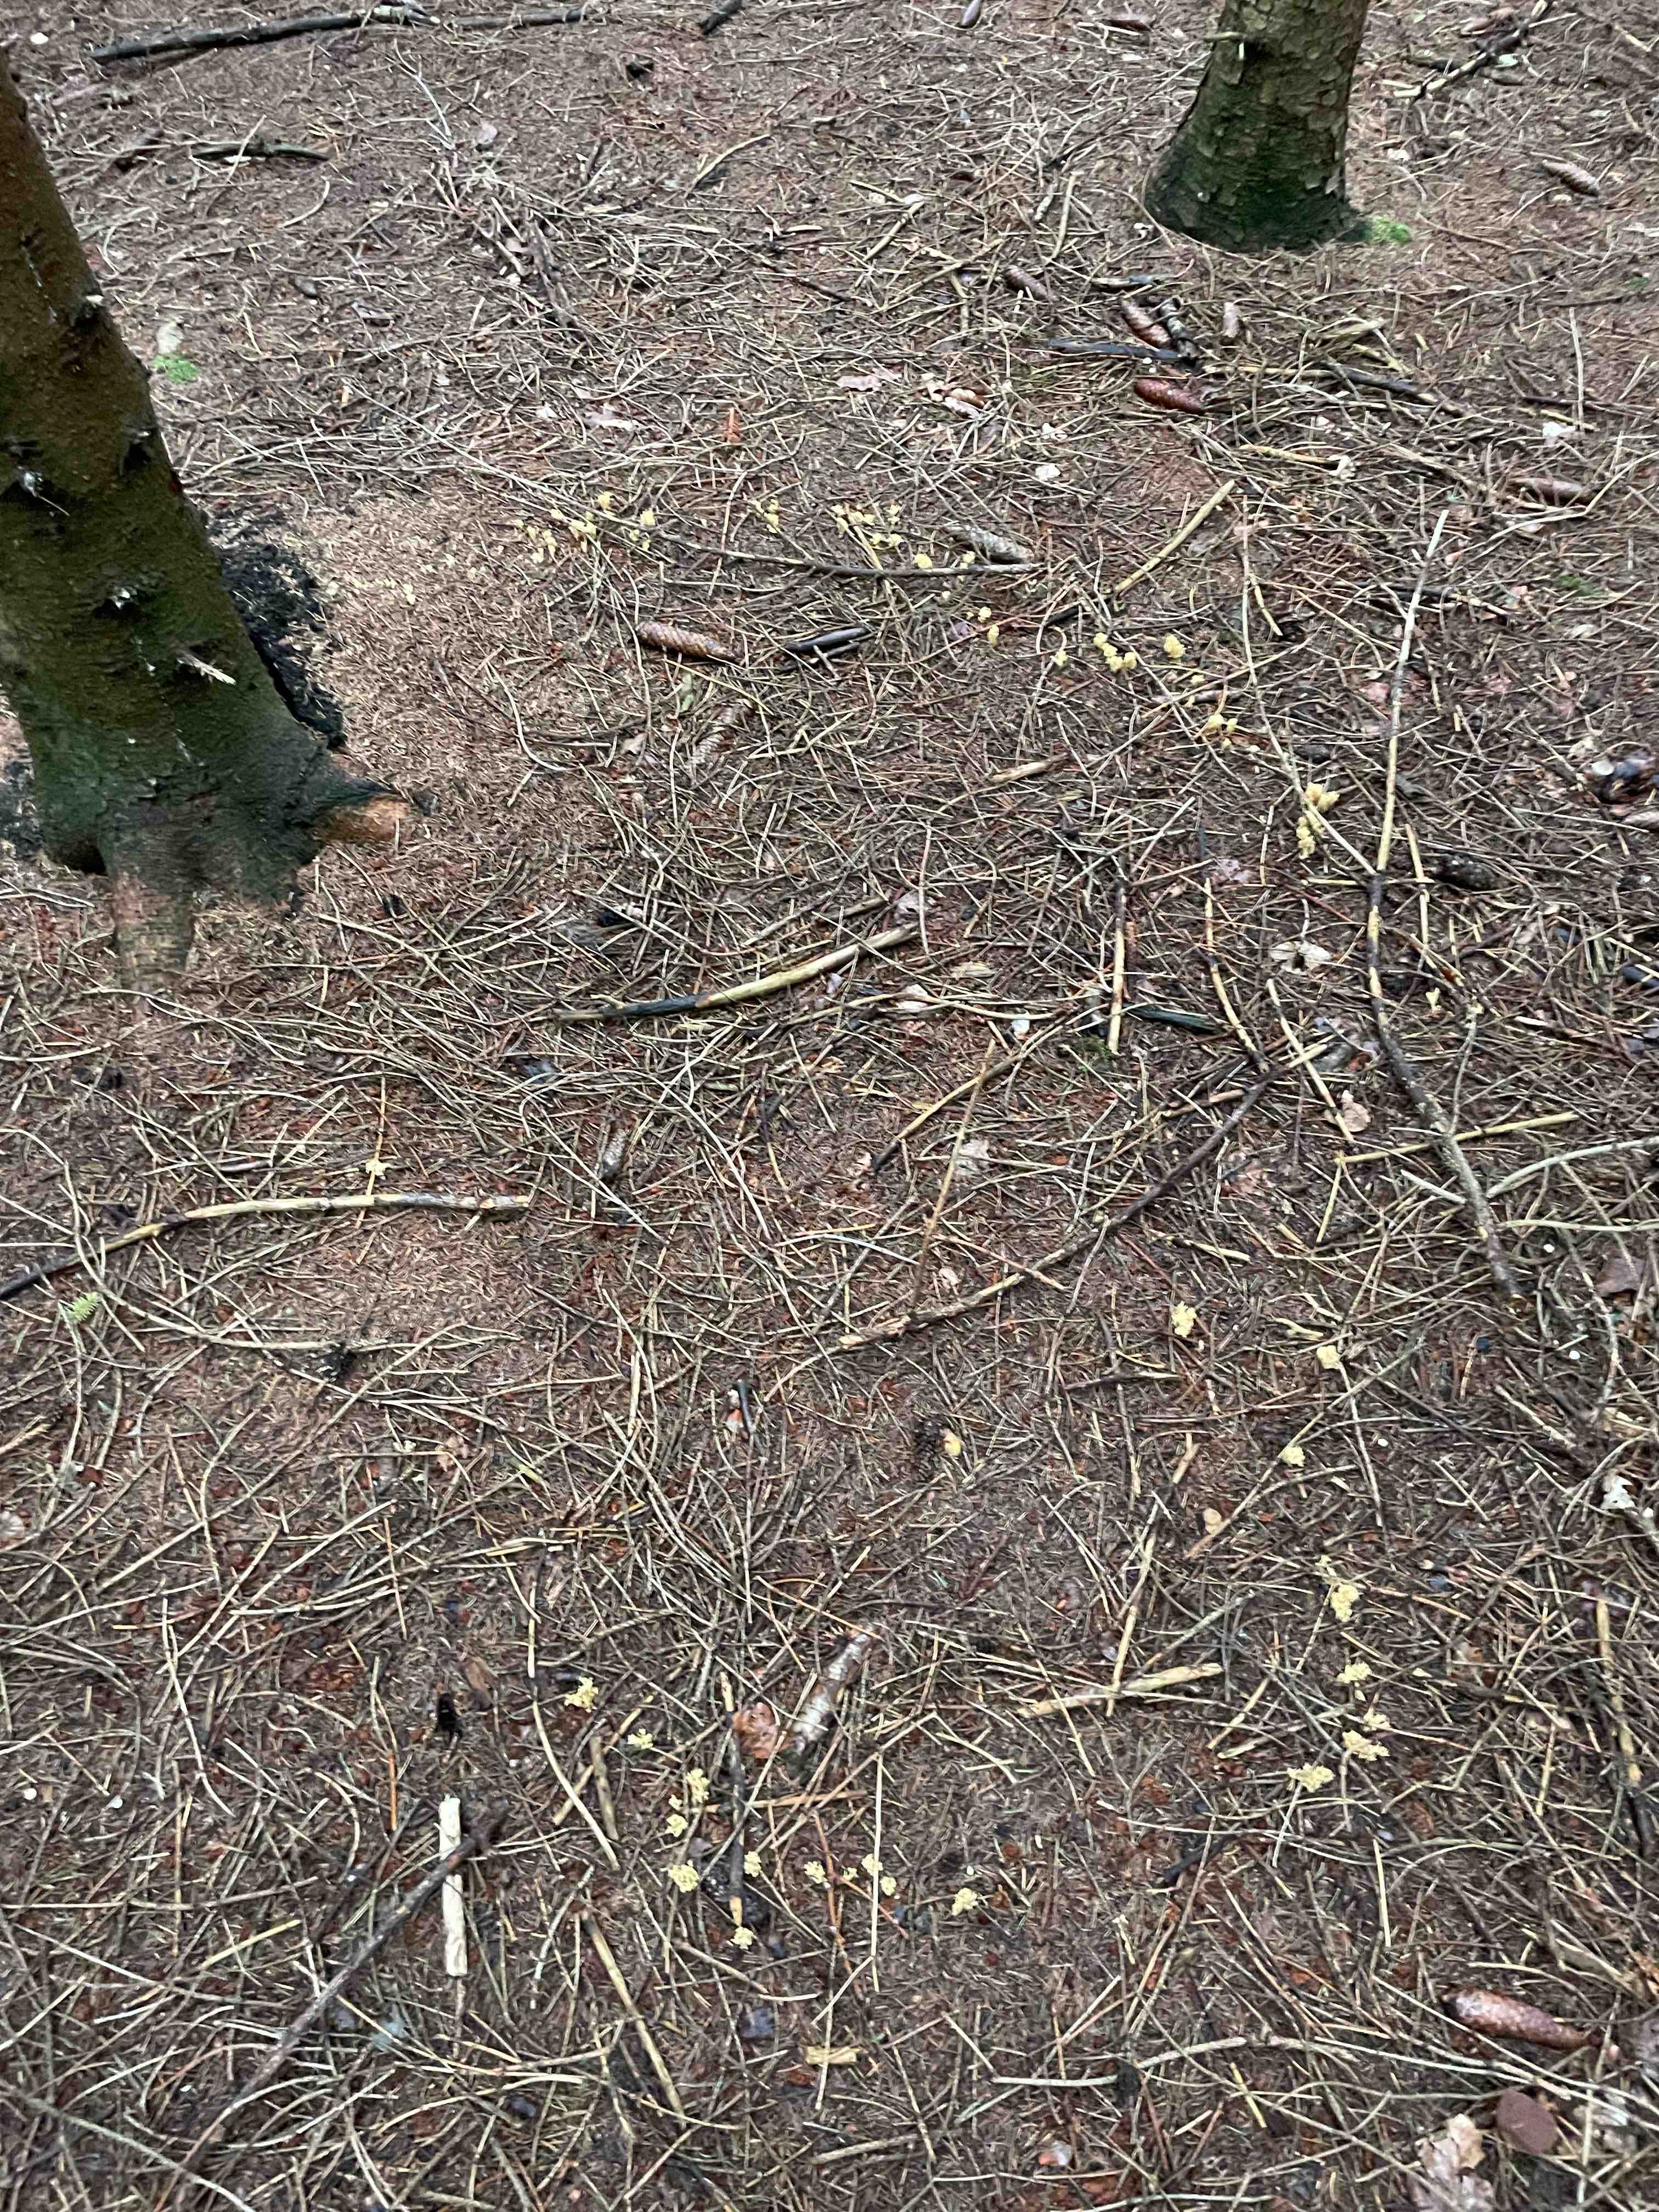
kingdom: Fungi
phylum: Basidiomycota
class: Agaricomycetes
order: Gomphales
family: Gomphaceae
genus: Phaeoclavulina
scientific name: Phaeoclavulina eumorpha
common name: gran-koralsvamp
